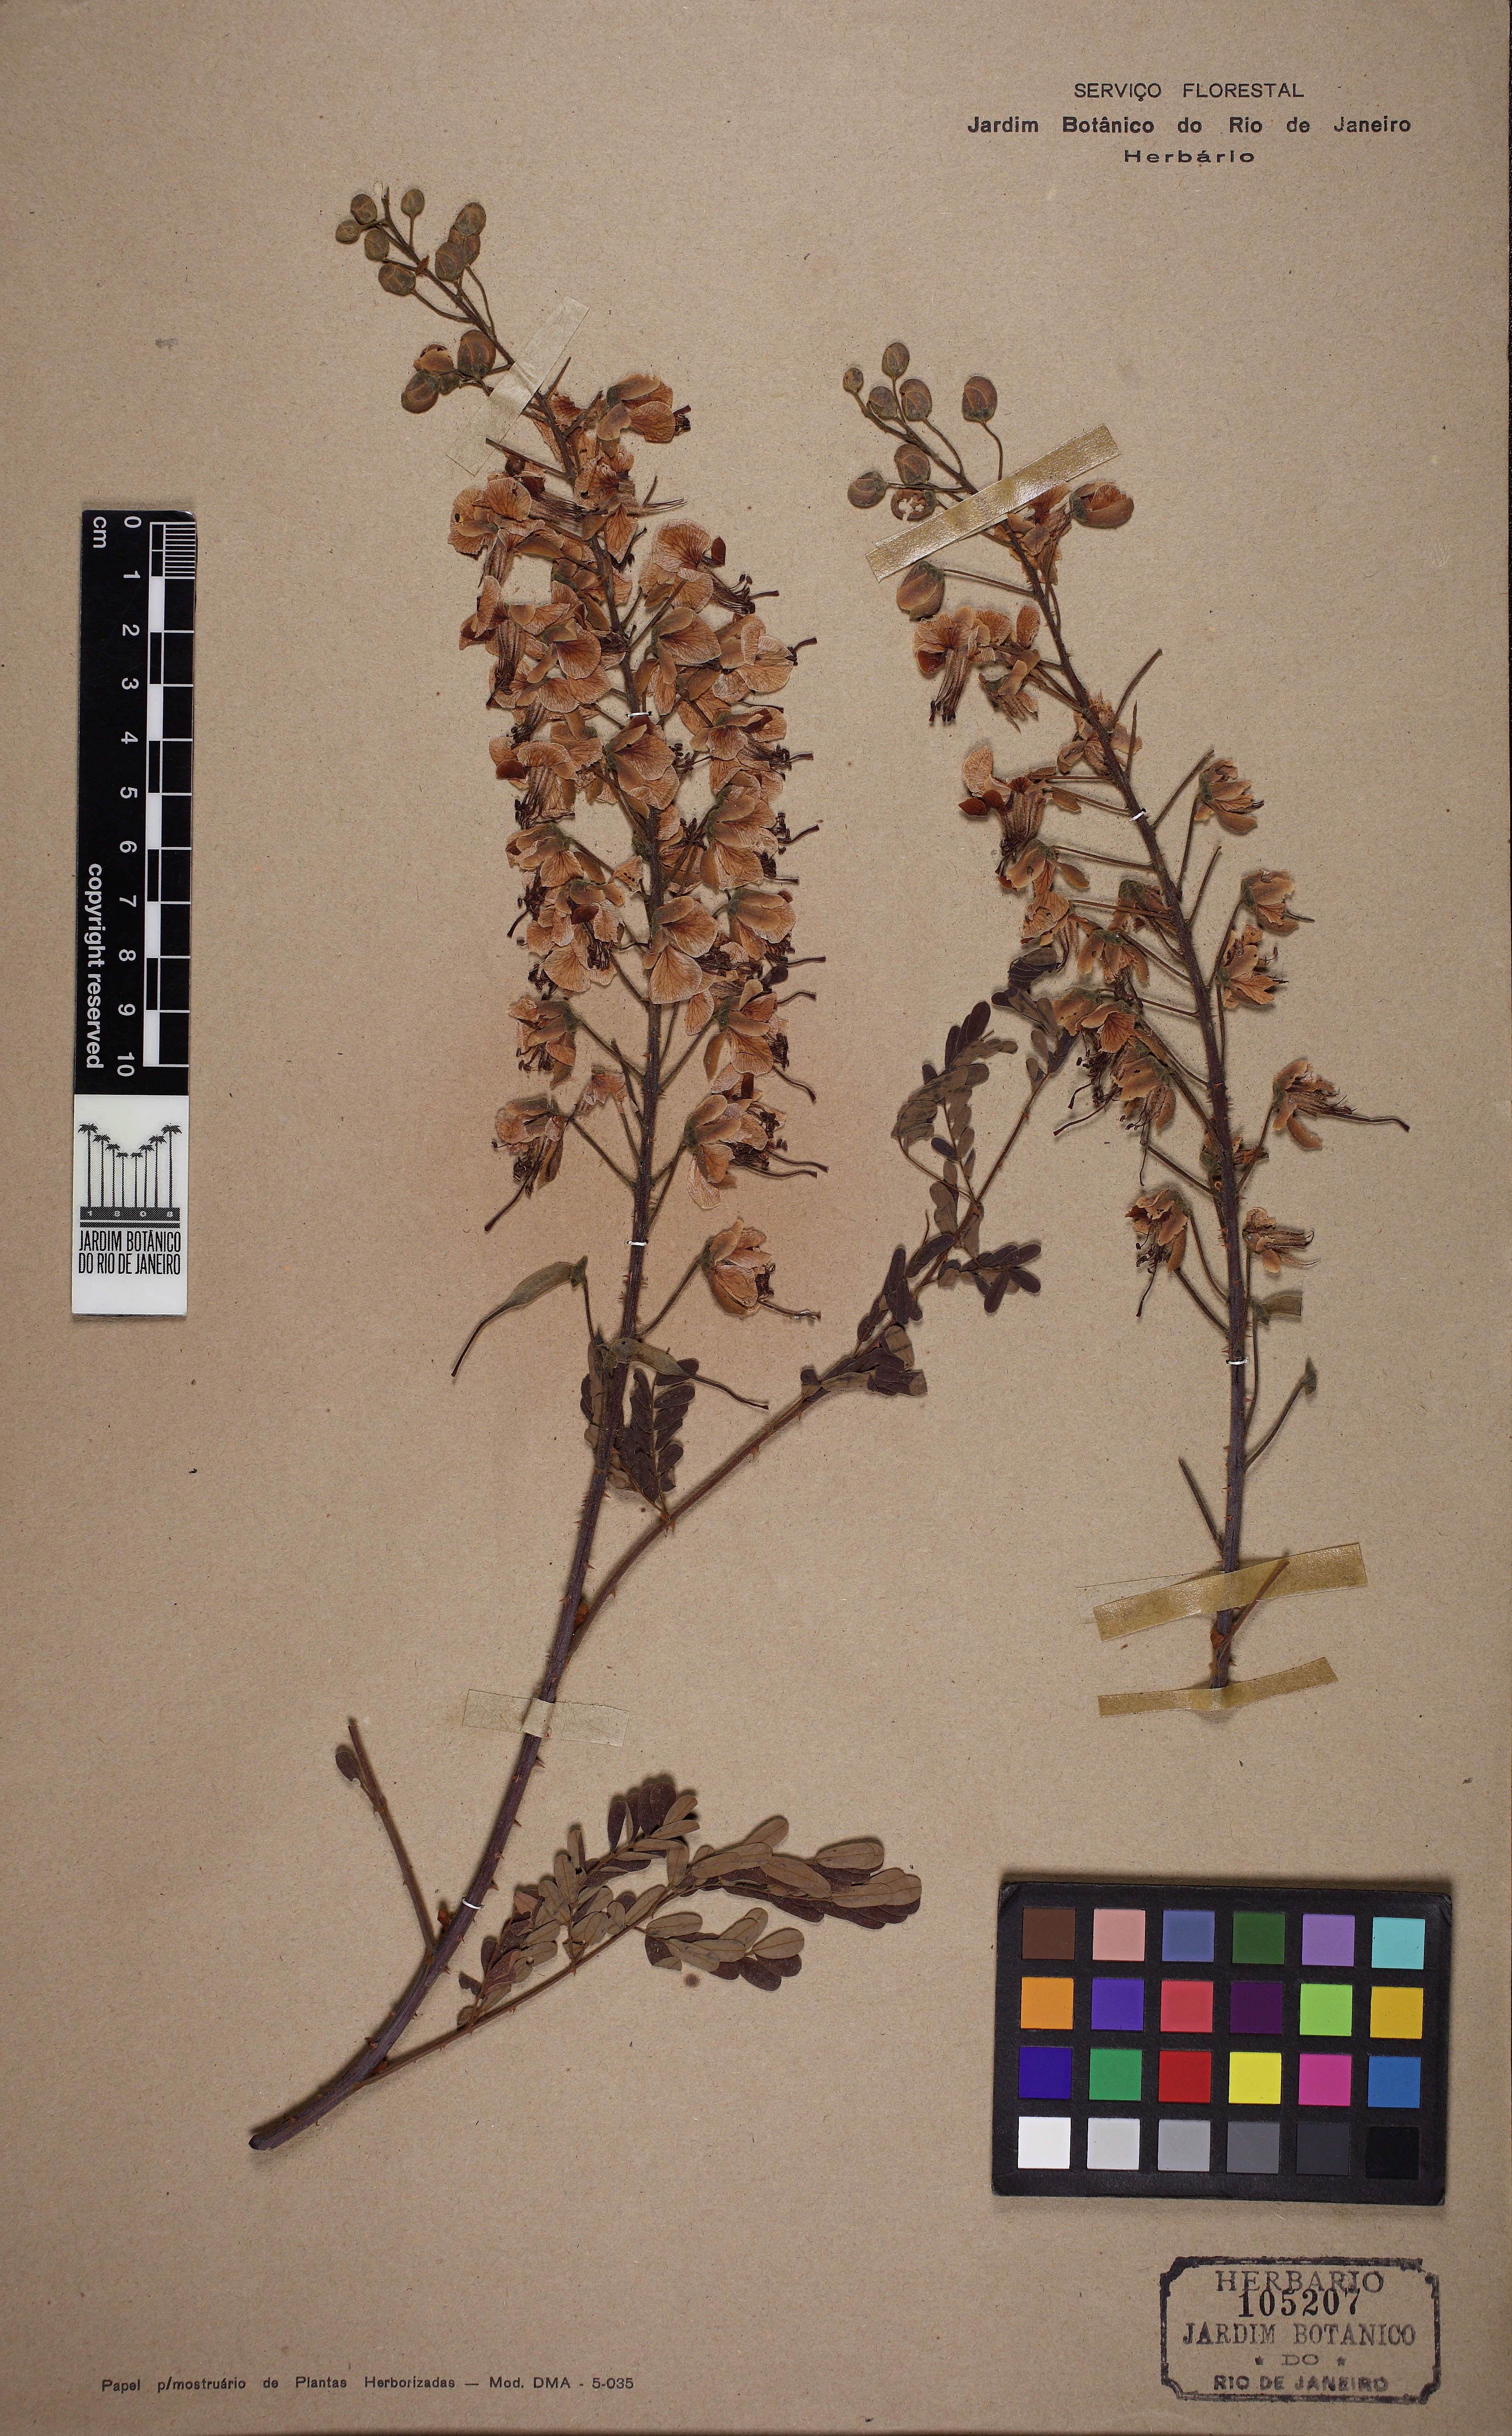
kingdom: Plantae
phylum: Tracheophyta
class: Magnoliopsida
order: Fabales
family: Fabaceae
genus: Biancaea
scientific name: Biancaea decapetala
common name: Cat's claw
